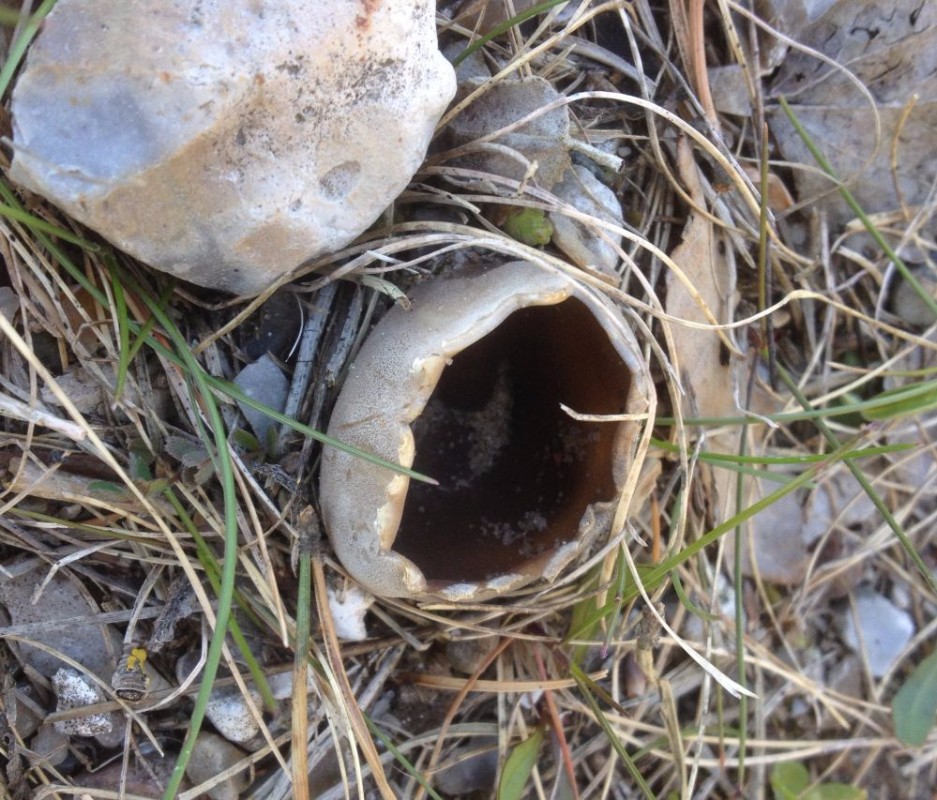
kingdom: Fungi
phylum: Ascomycota
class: Pezizomycetes
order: Pezizales
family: Helvellaceae
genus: Dissingia
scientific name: Dissingia leucomelaena
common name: sorthvid foldhat
